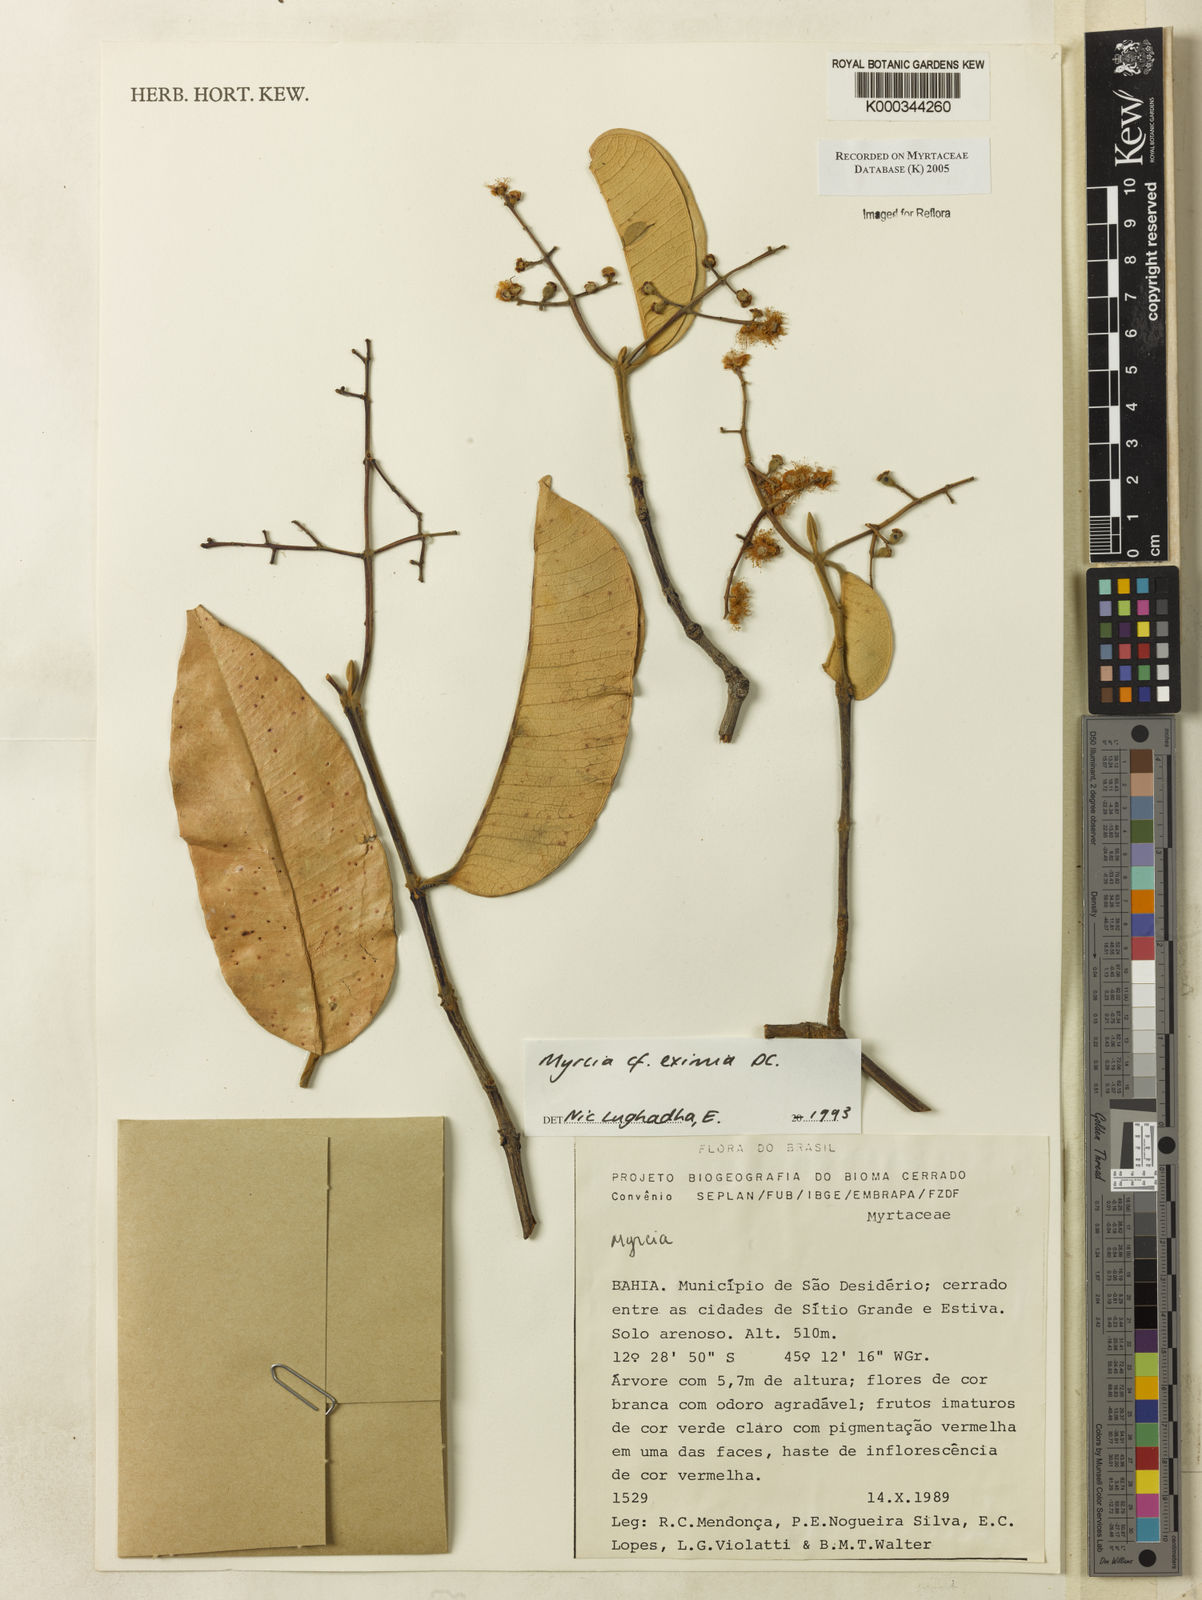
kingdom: Plantae
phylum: Tracheophyta
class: Magnoliopsida
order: Myrtales
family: Myrtaceae
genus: Myrcia
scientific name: Myrcia eximia
